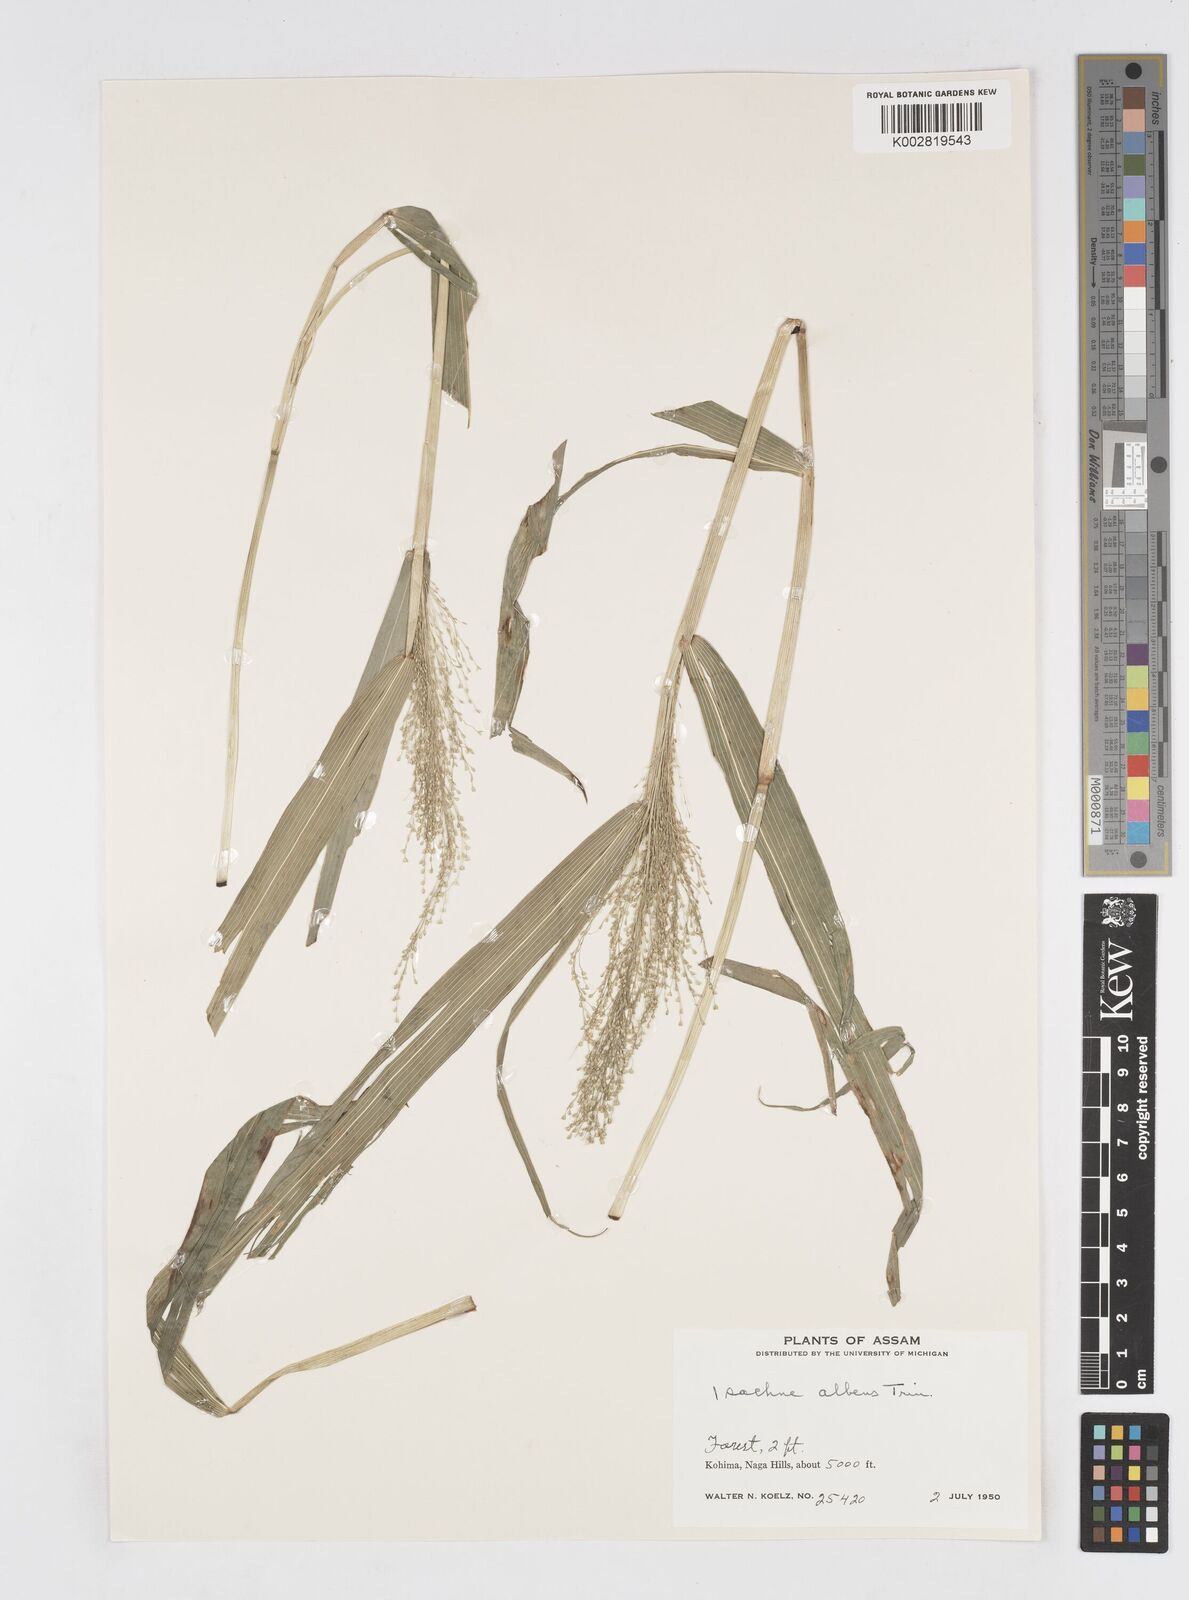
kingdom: Plantae
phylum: Tracheophyta
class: Liliopsida
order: Poales
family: Poaceae
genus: Isachne
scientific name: Isachne albens
